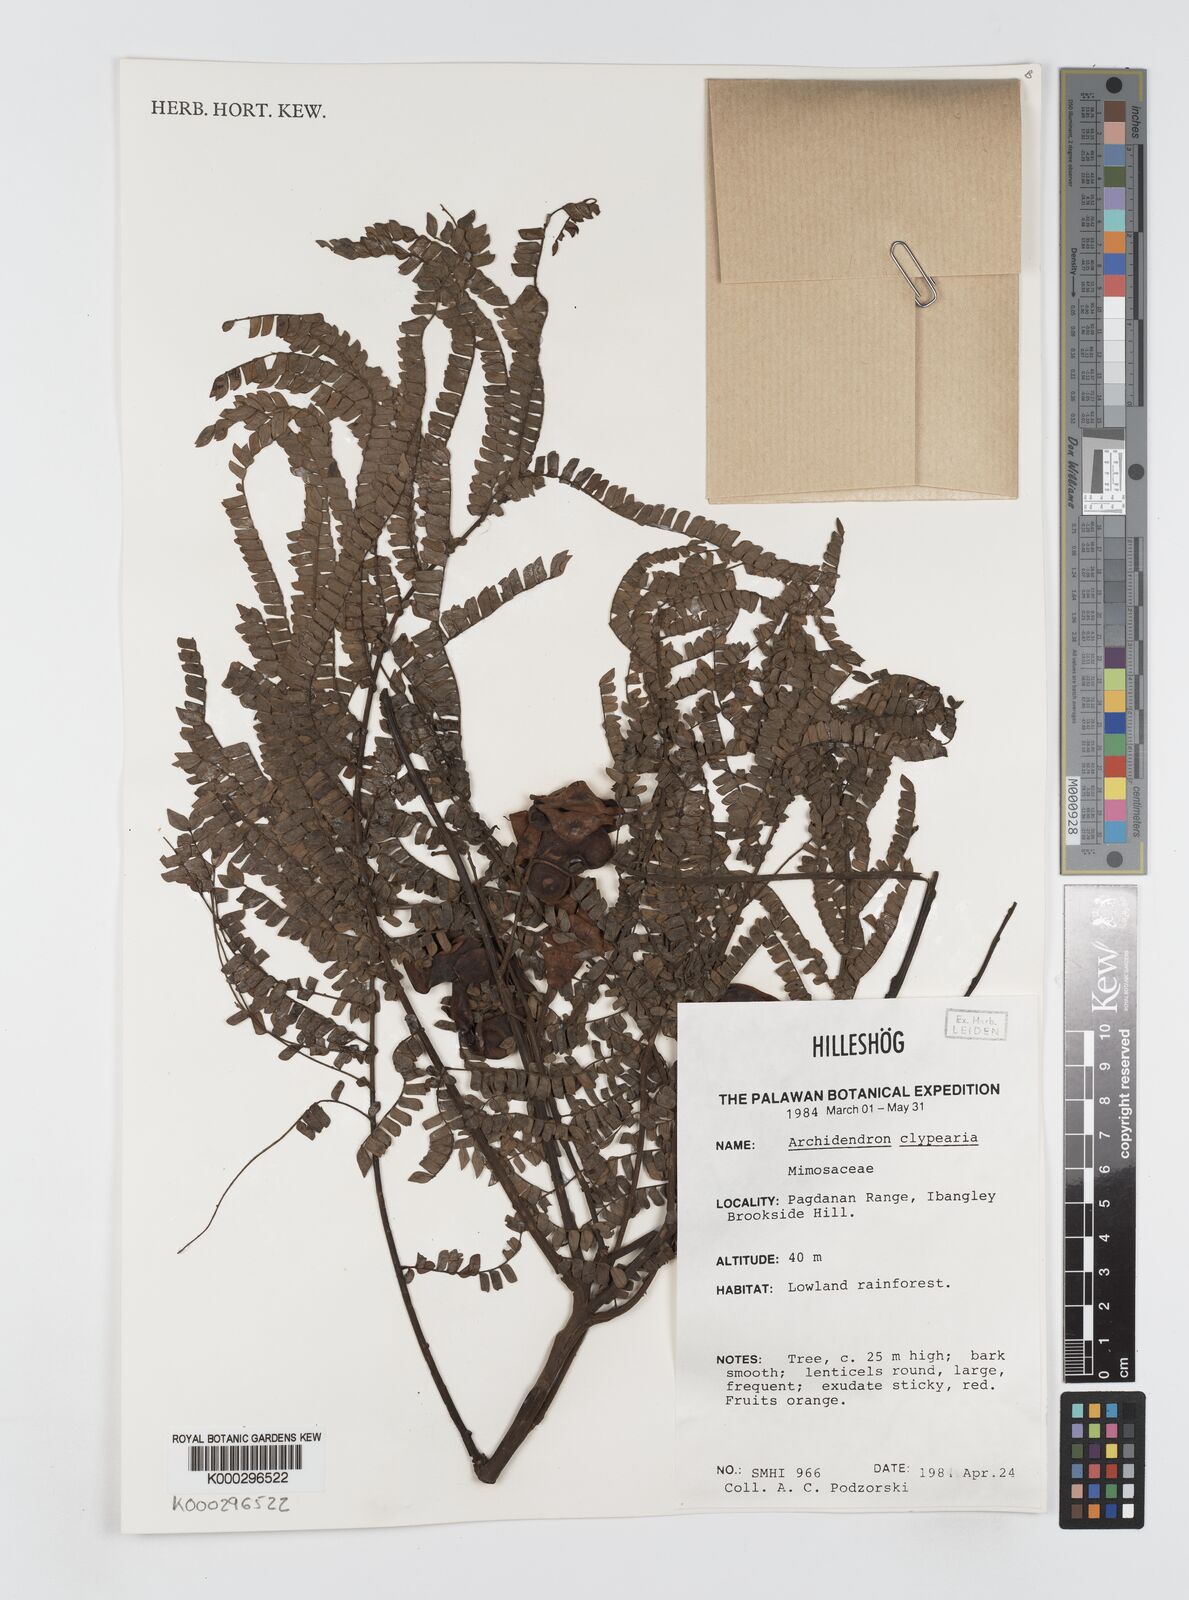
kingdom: Plantae
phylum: Tracheophyta
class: Magnoliopsida
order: Fabales
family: Fabaceae
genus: Archidendron
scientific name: Archidendron clypearia
